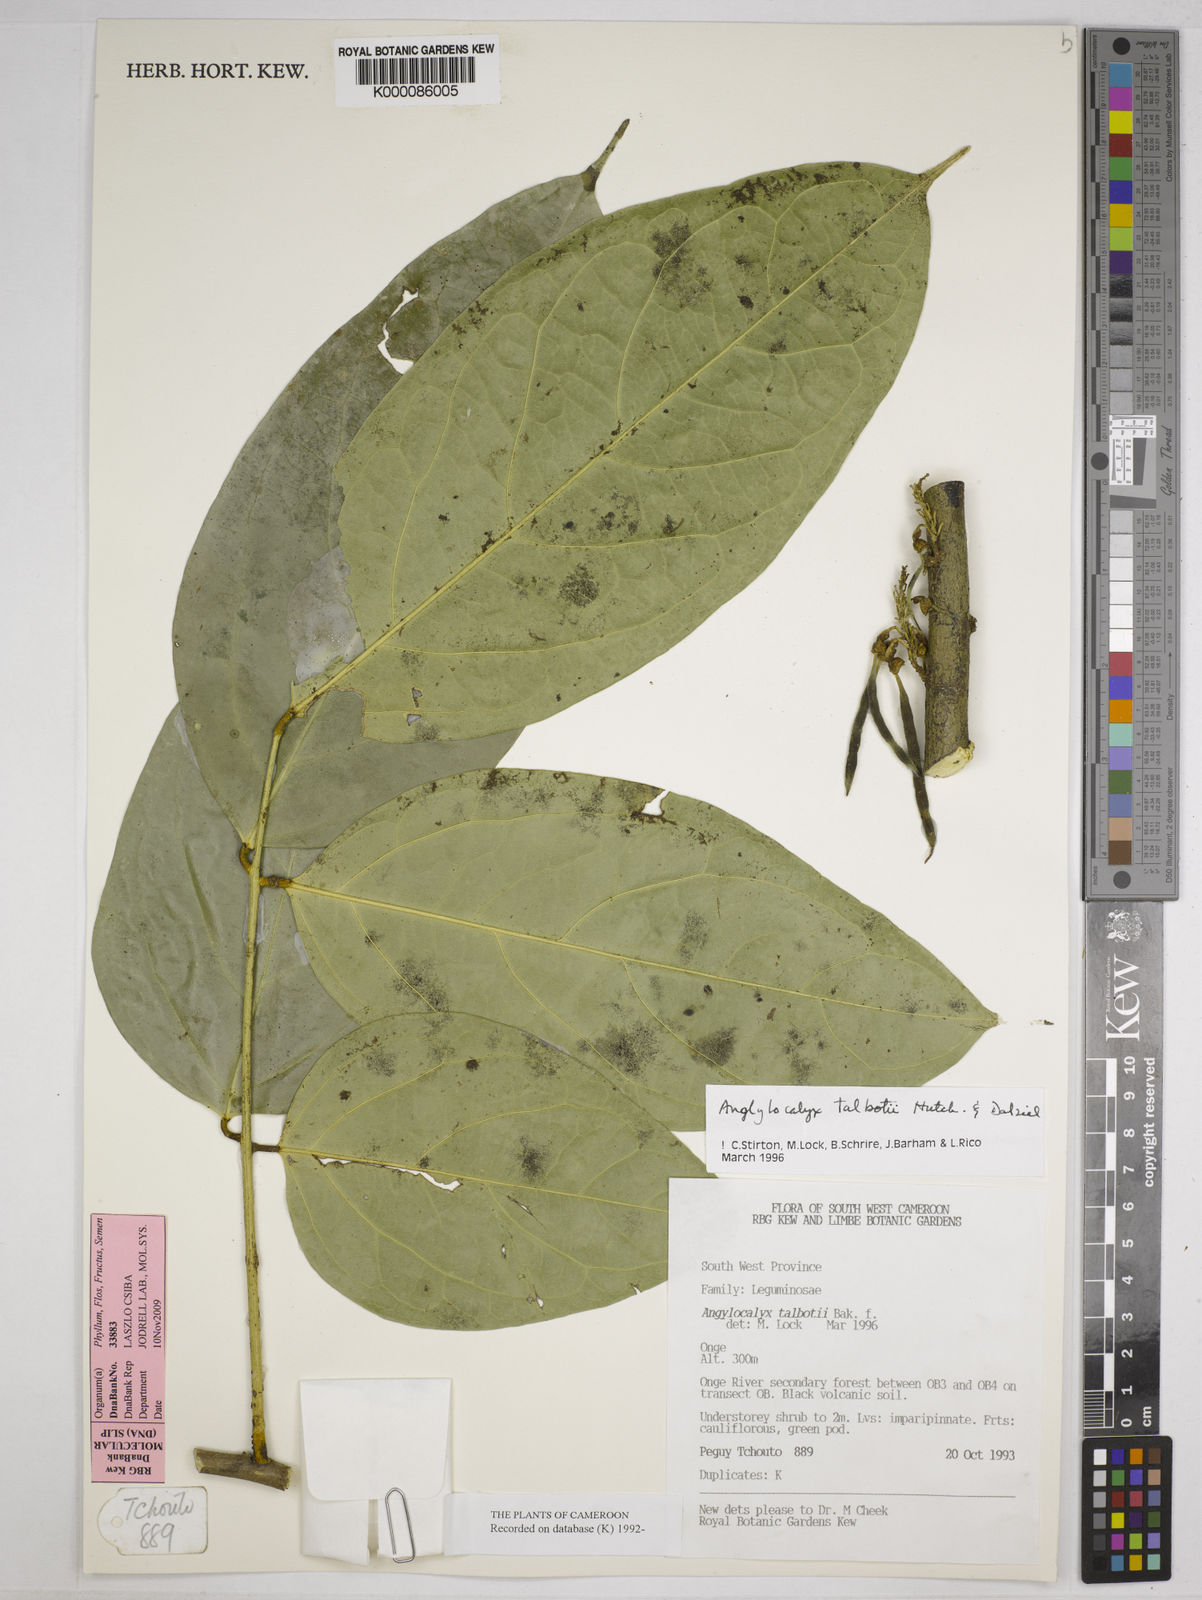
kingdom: Plantae
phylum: Tracheophyta
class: Magnoliopsida
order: Fabales
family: Fabaceae
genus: Angylocalyx
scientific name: Angylocalyx
